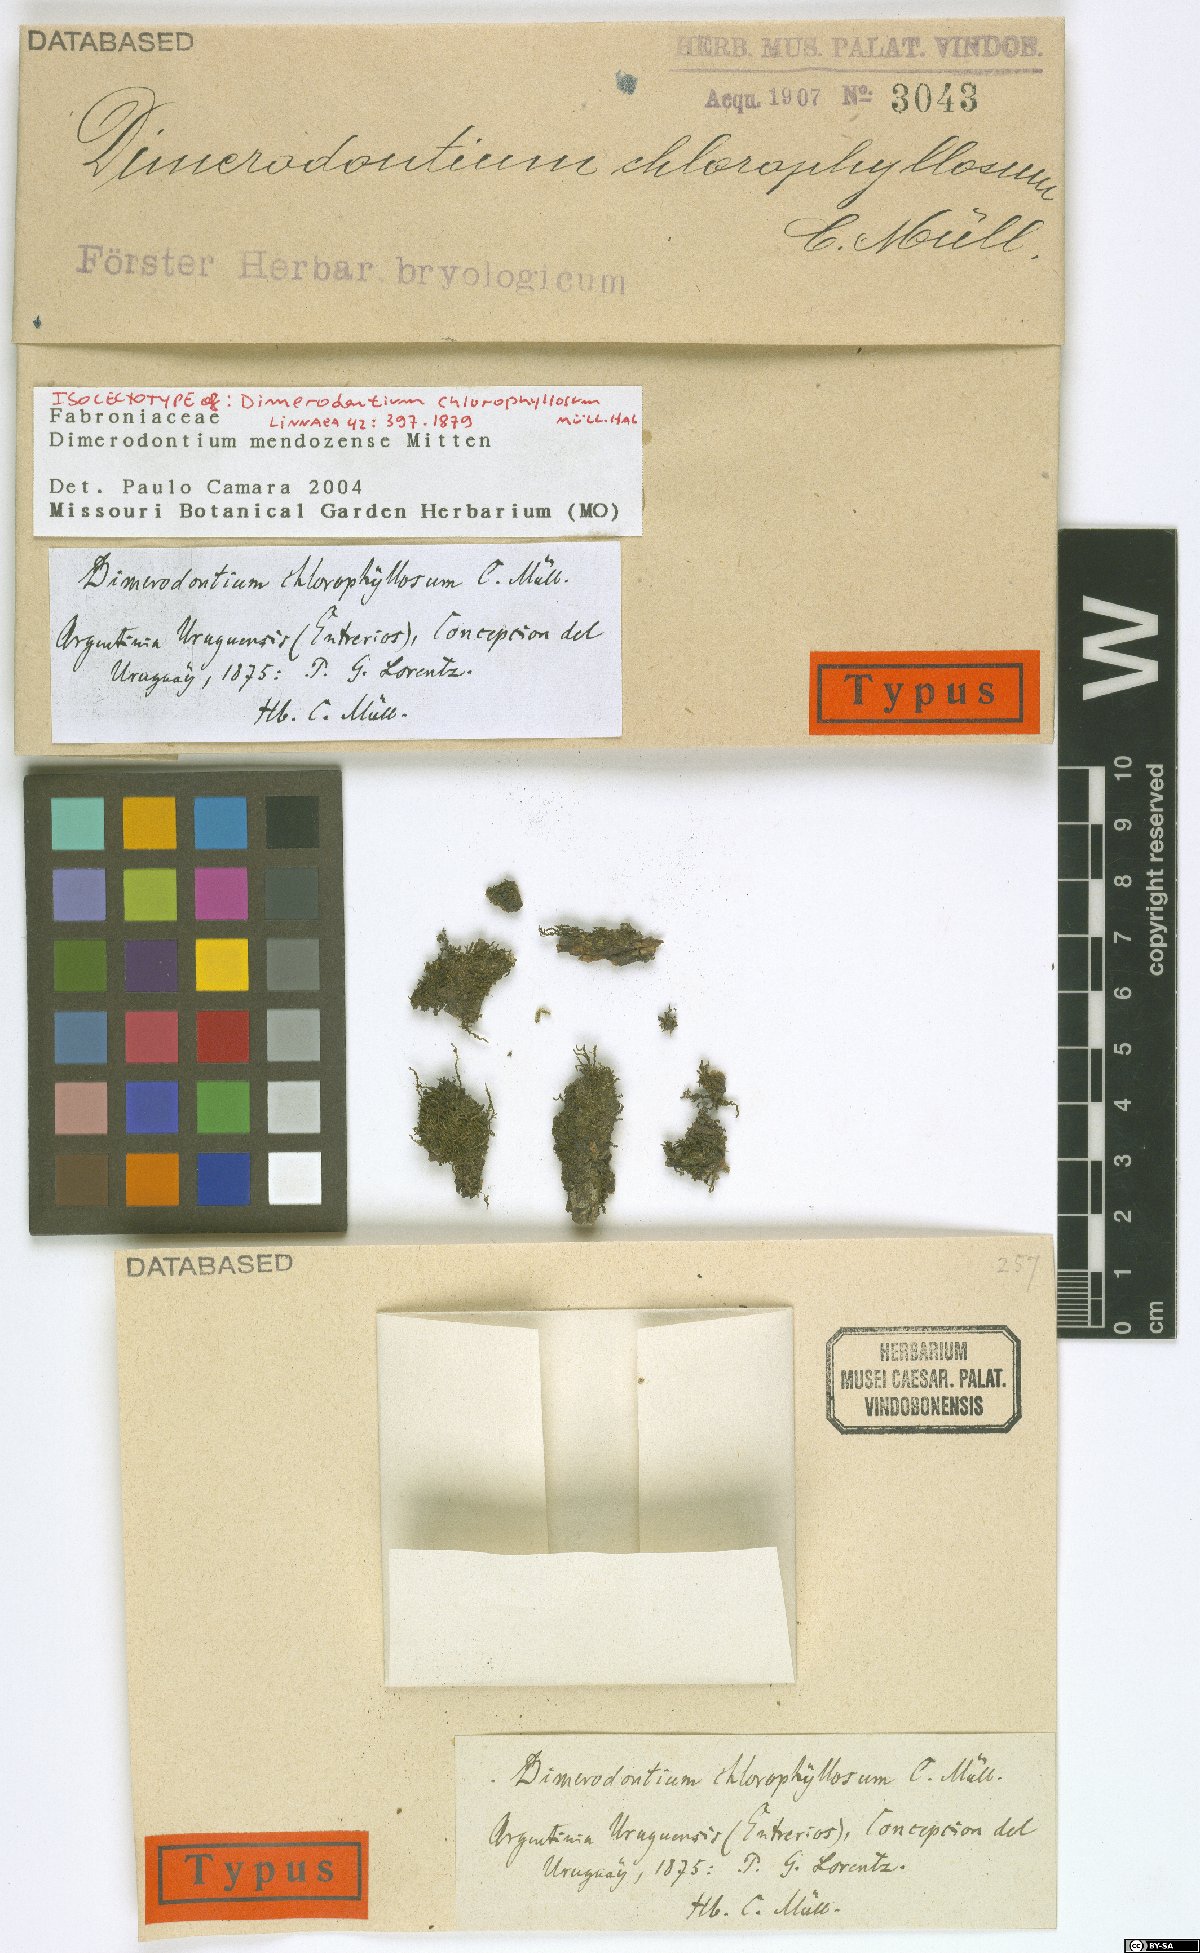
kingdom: Plantae
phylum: Bryophyta
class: Bryopsida
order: Hypnales
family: Fabroniaceae
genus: Dimerodontium
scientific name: Dimerodontium mendozense
